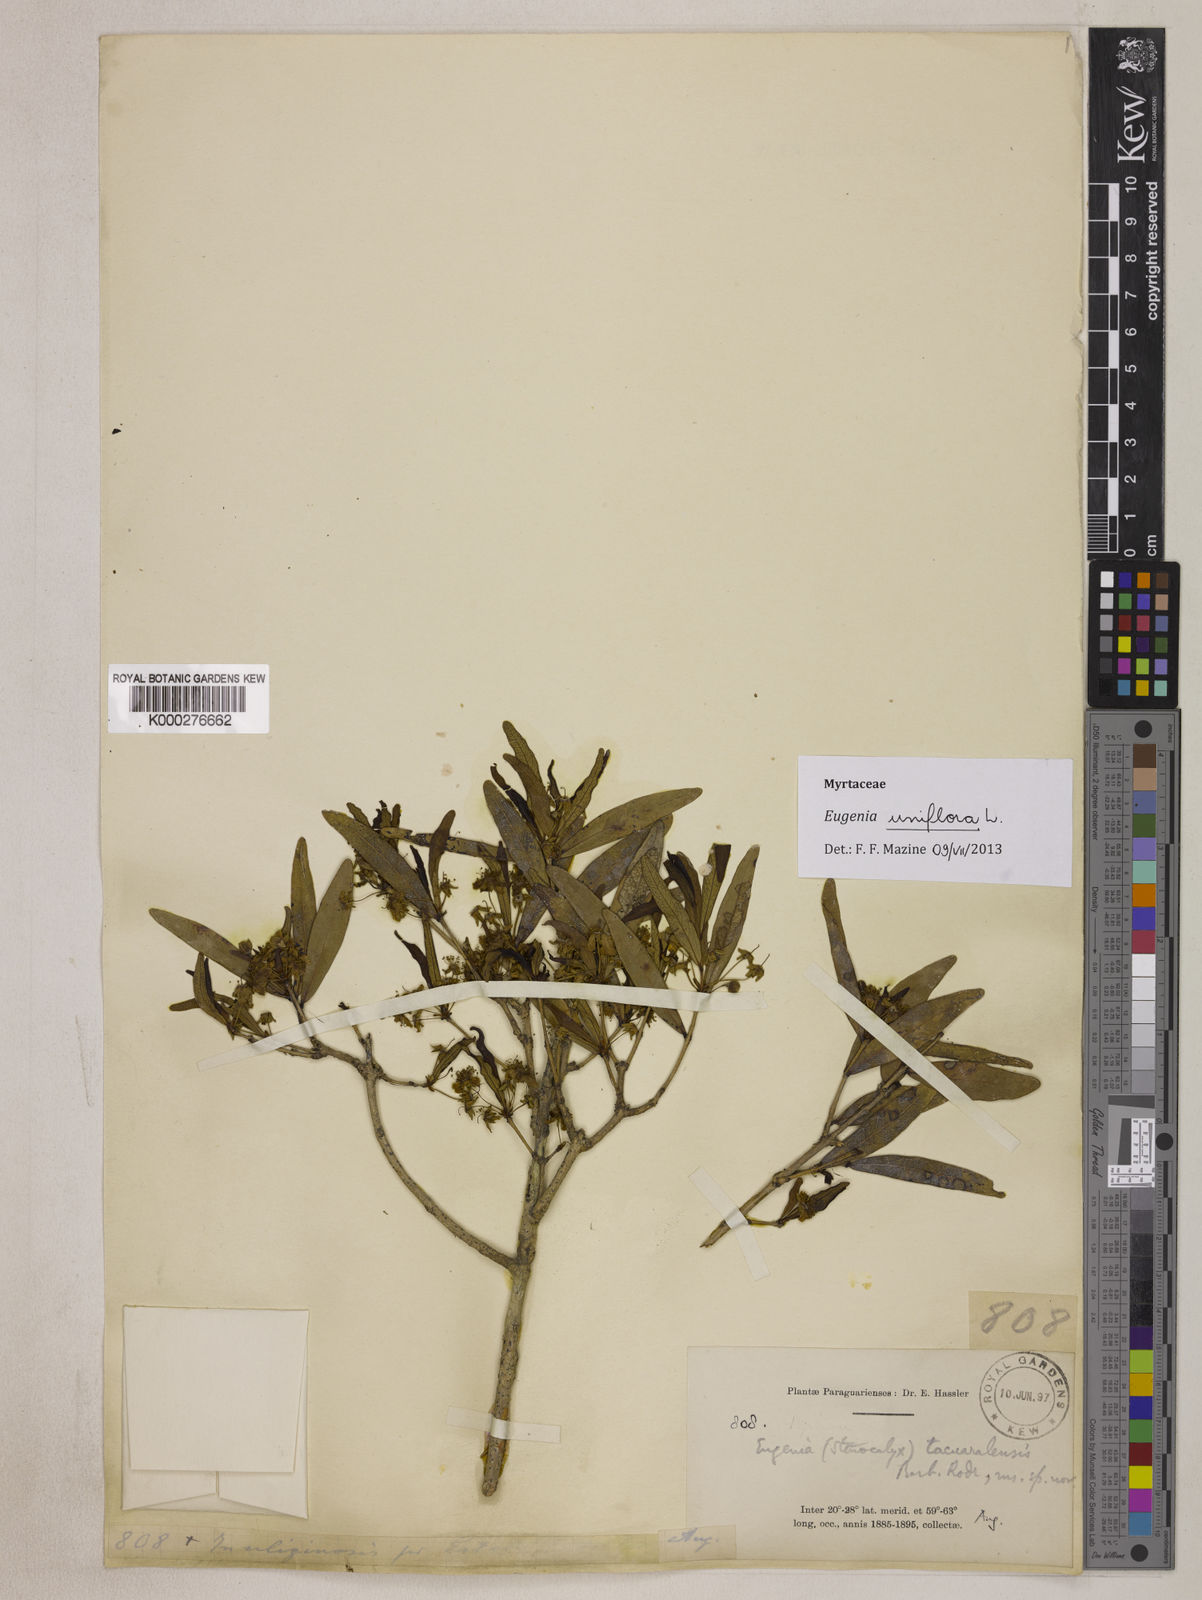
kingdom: Plantae
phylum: Tracheophyta
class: Magnoliopsida
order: Myrtales
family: Myrtaceae
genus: Eugenia
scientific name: Eugenia
